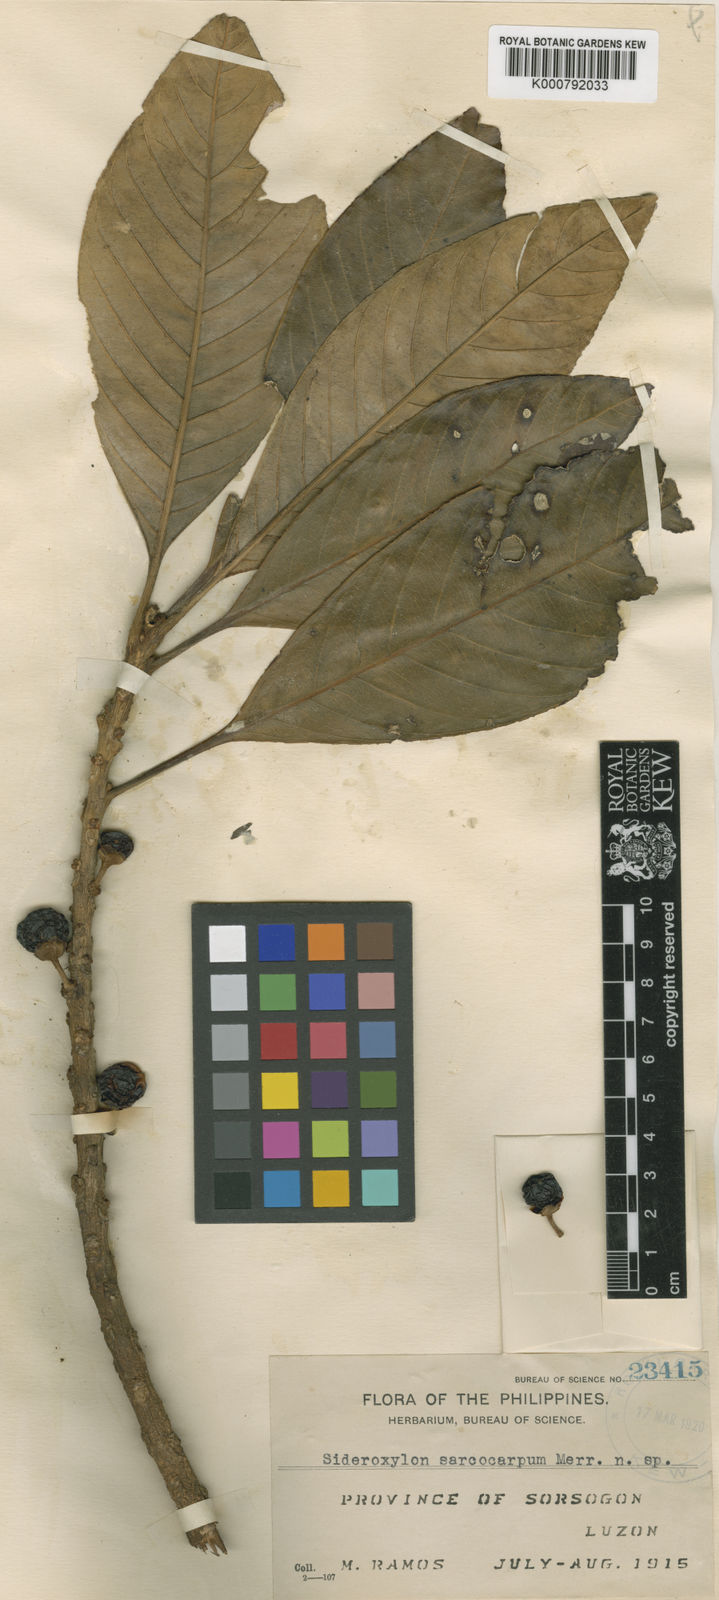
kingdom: Plantae
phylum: Tracheophyta
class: Magnoliopsida
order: Ericales
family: Sapotaceae
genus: Planchonella
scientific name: Planchonella velutina
